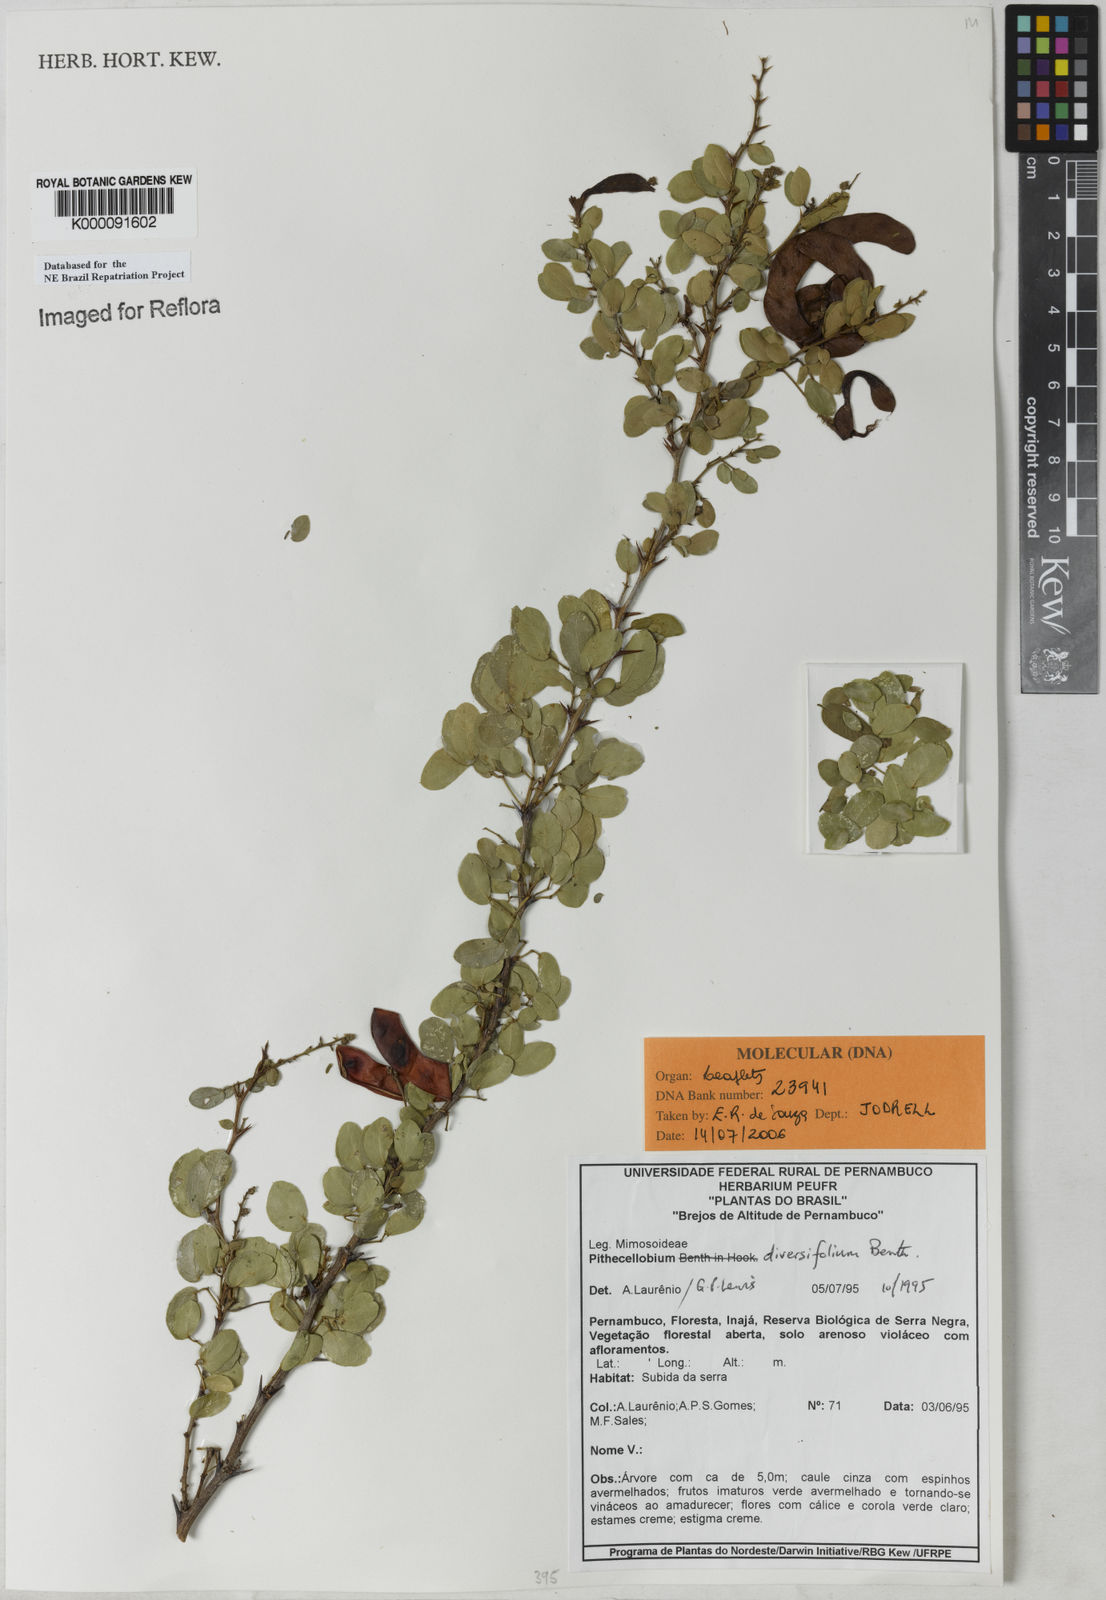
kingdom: Plantae
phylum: Tracheophyta
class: Magnoliopsida
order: Fabales
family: Fabaceae
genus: Pithecellobium
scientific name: Pithecellobium diversifolium
